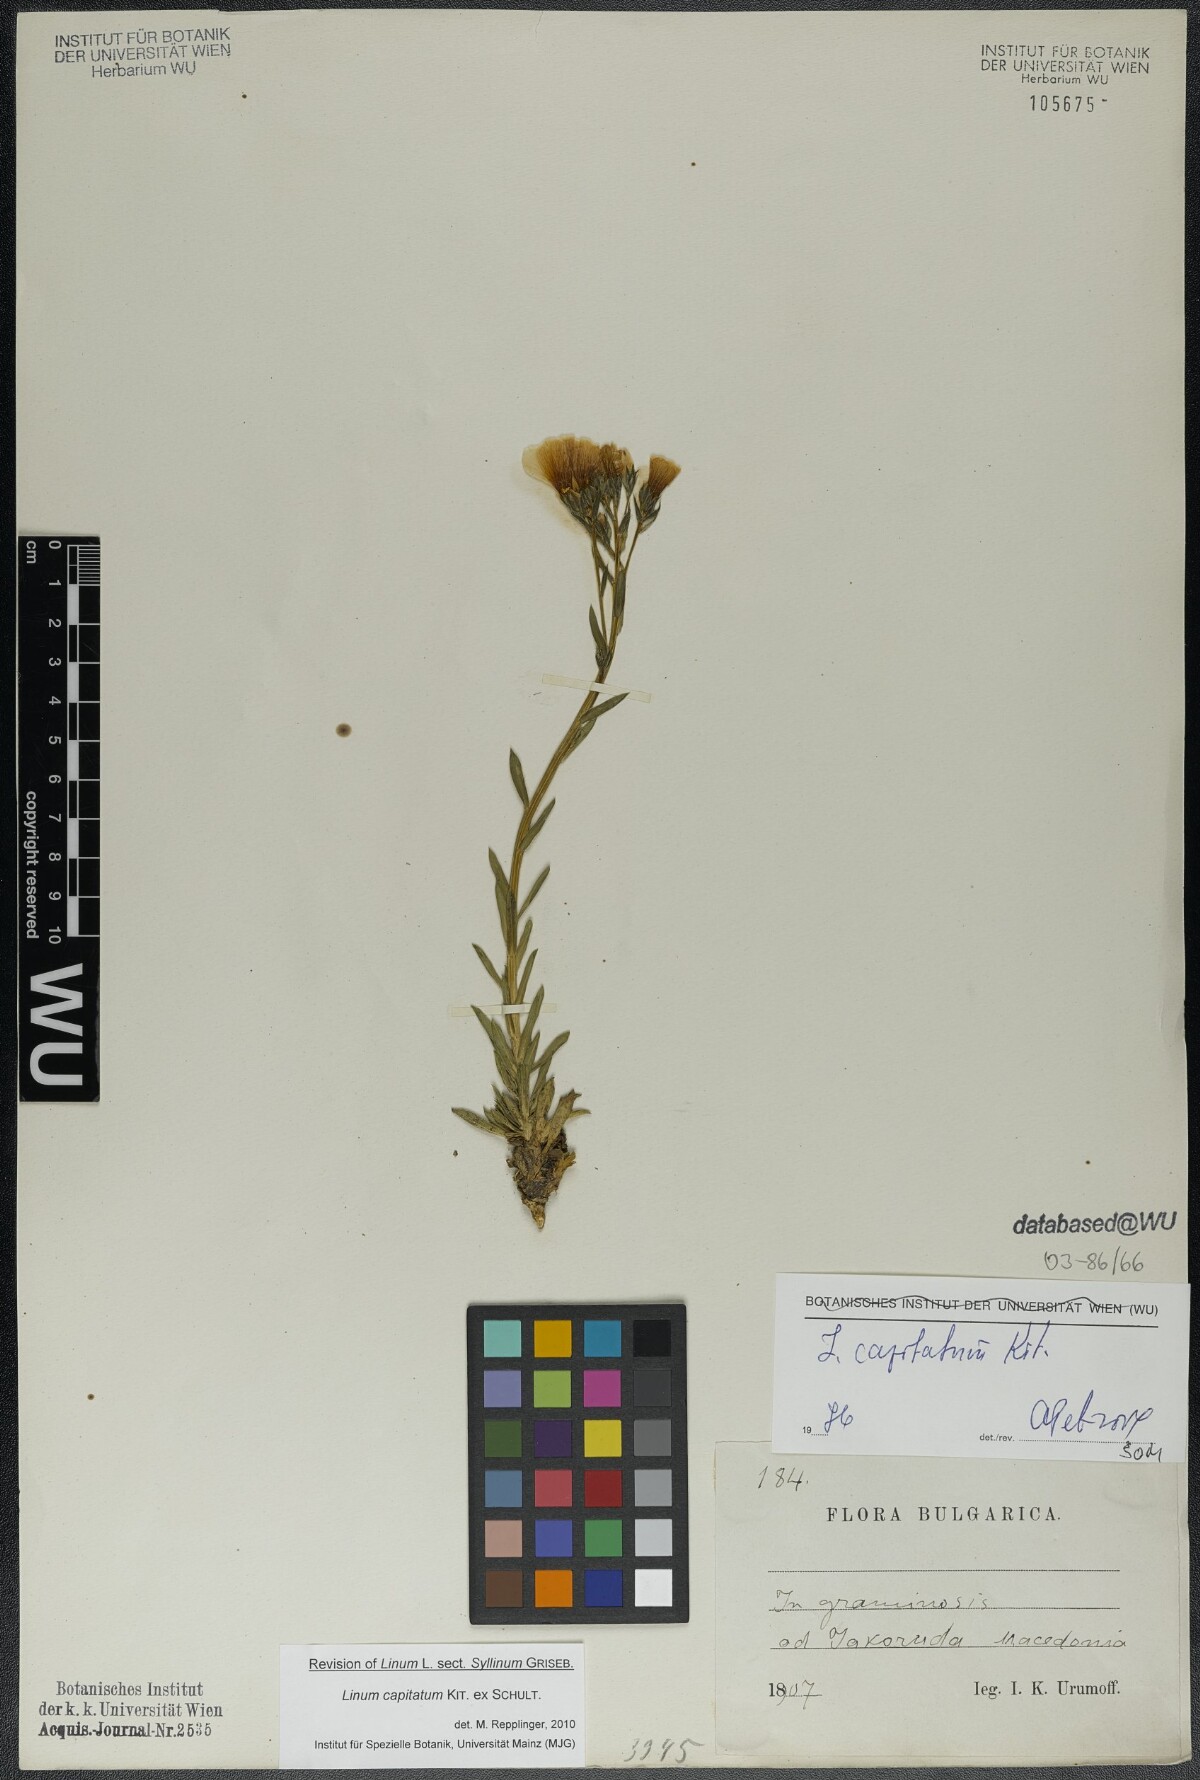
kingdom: Plantae
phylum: Tracheophyta
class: Magnoliopsida
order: Malpighiales
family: Linaceae
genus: Linum
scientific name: Linum capitatum
